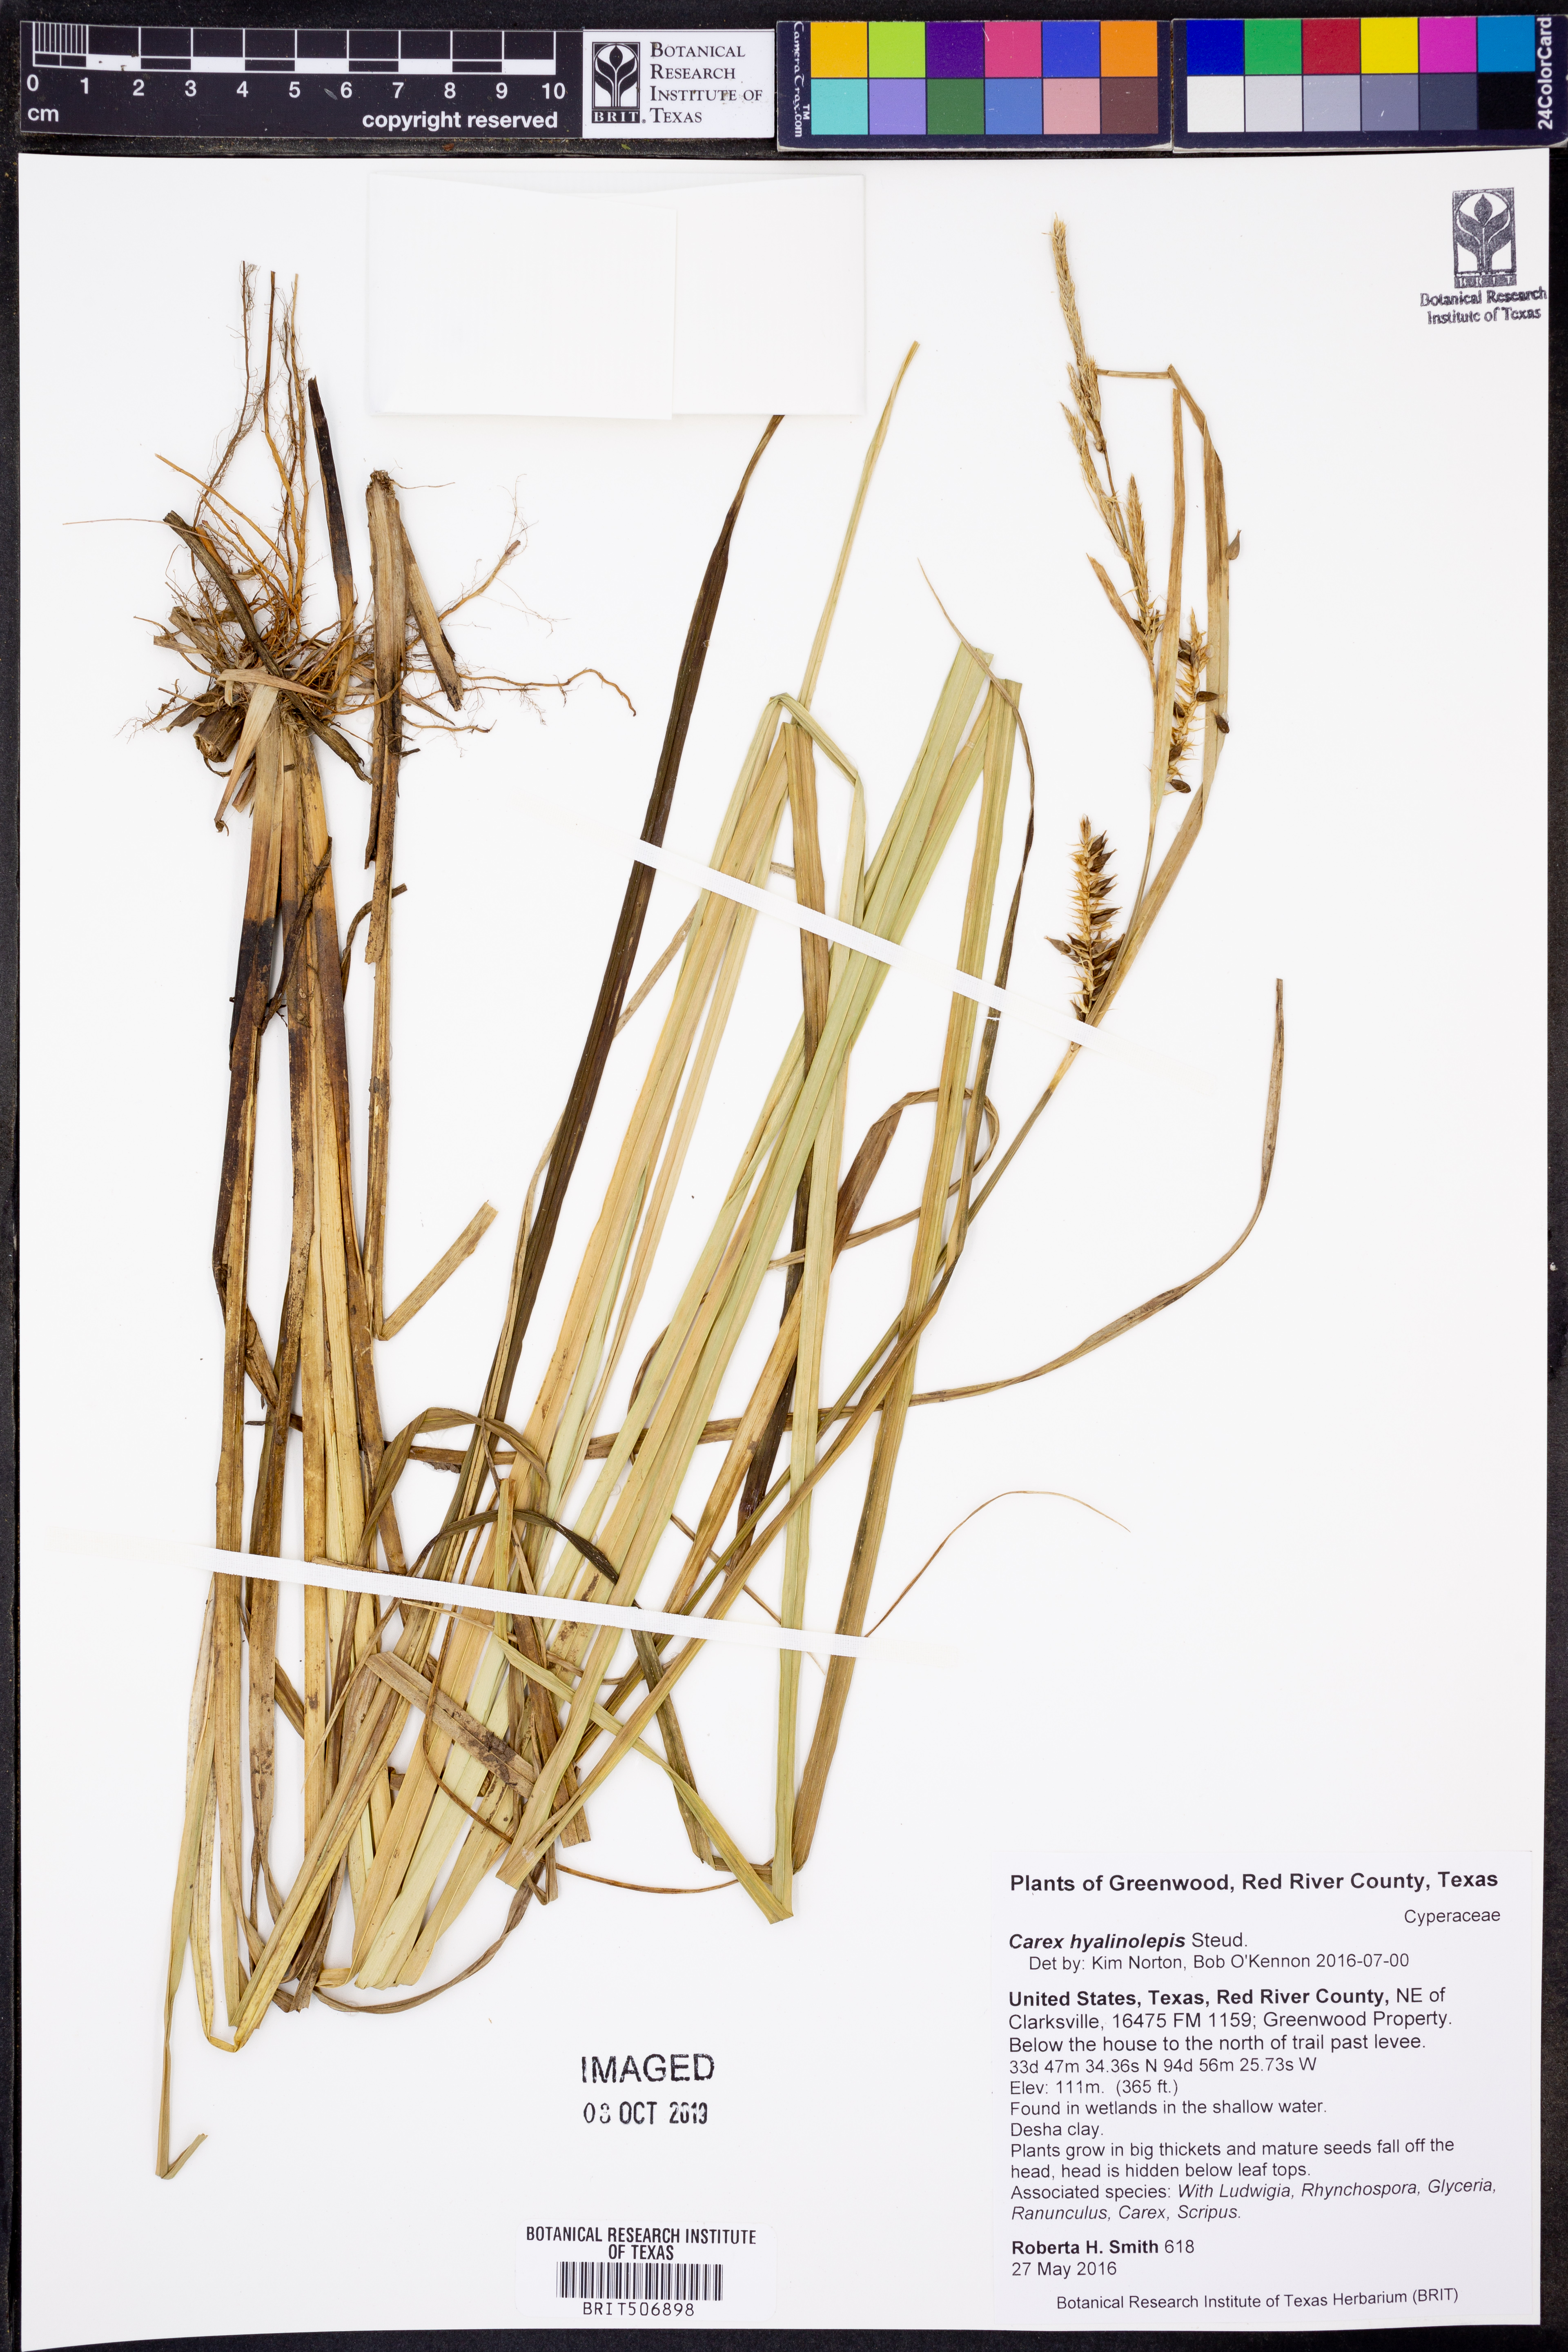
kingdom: Plantae
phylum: Tracheophyta
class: Liliopsida
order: Poales
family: Cyperaceae
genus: Carex
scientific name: Carex hyalinolepis
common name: Shoreline sedge
